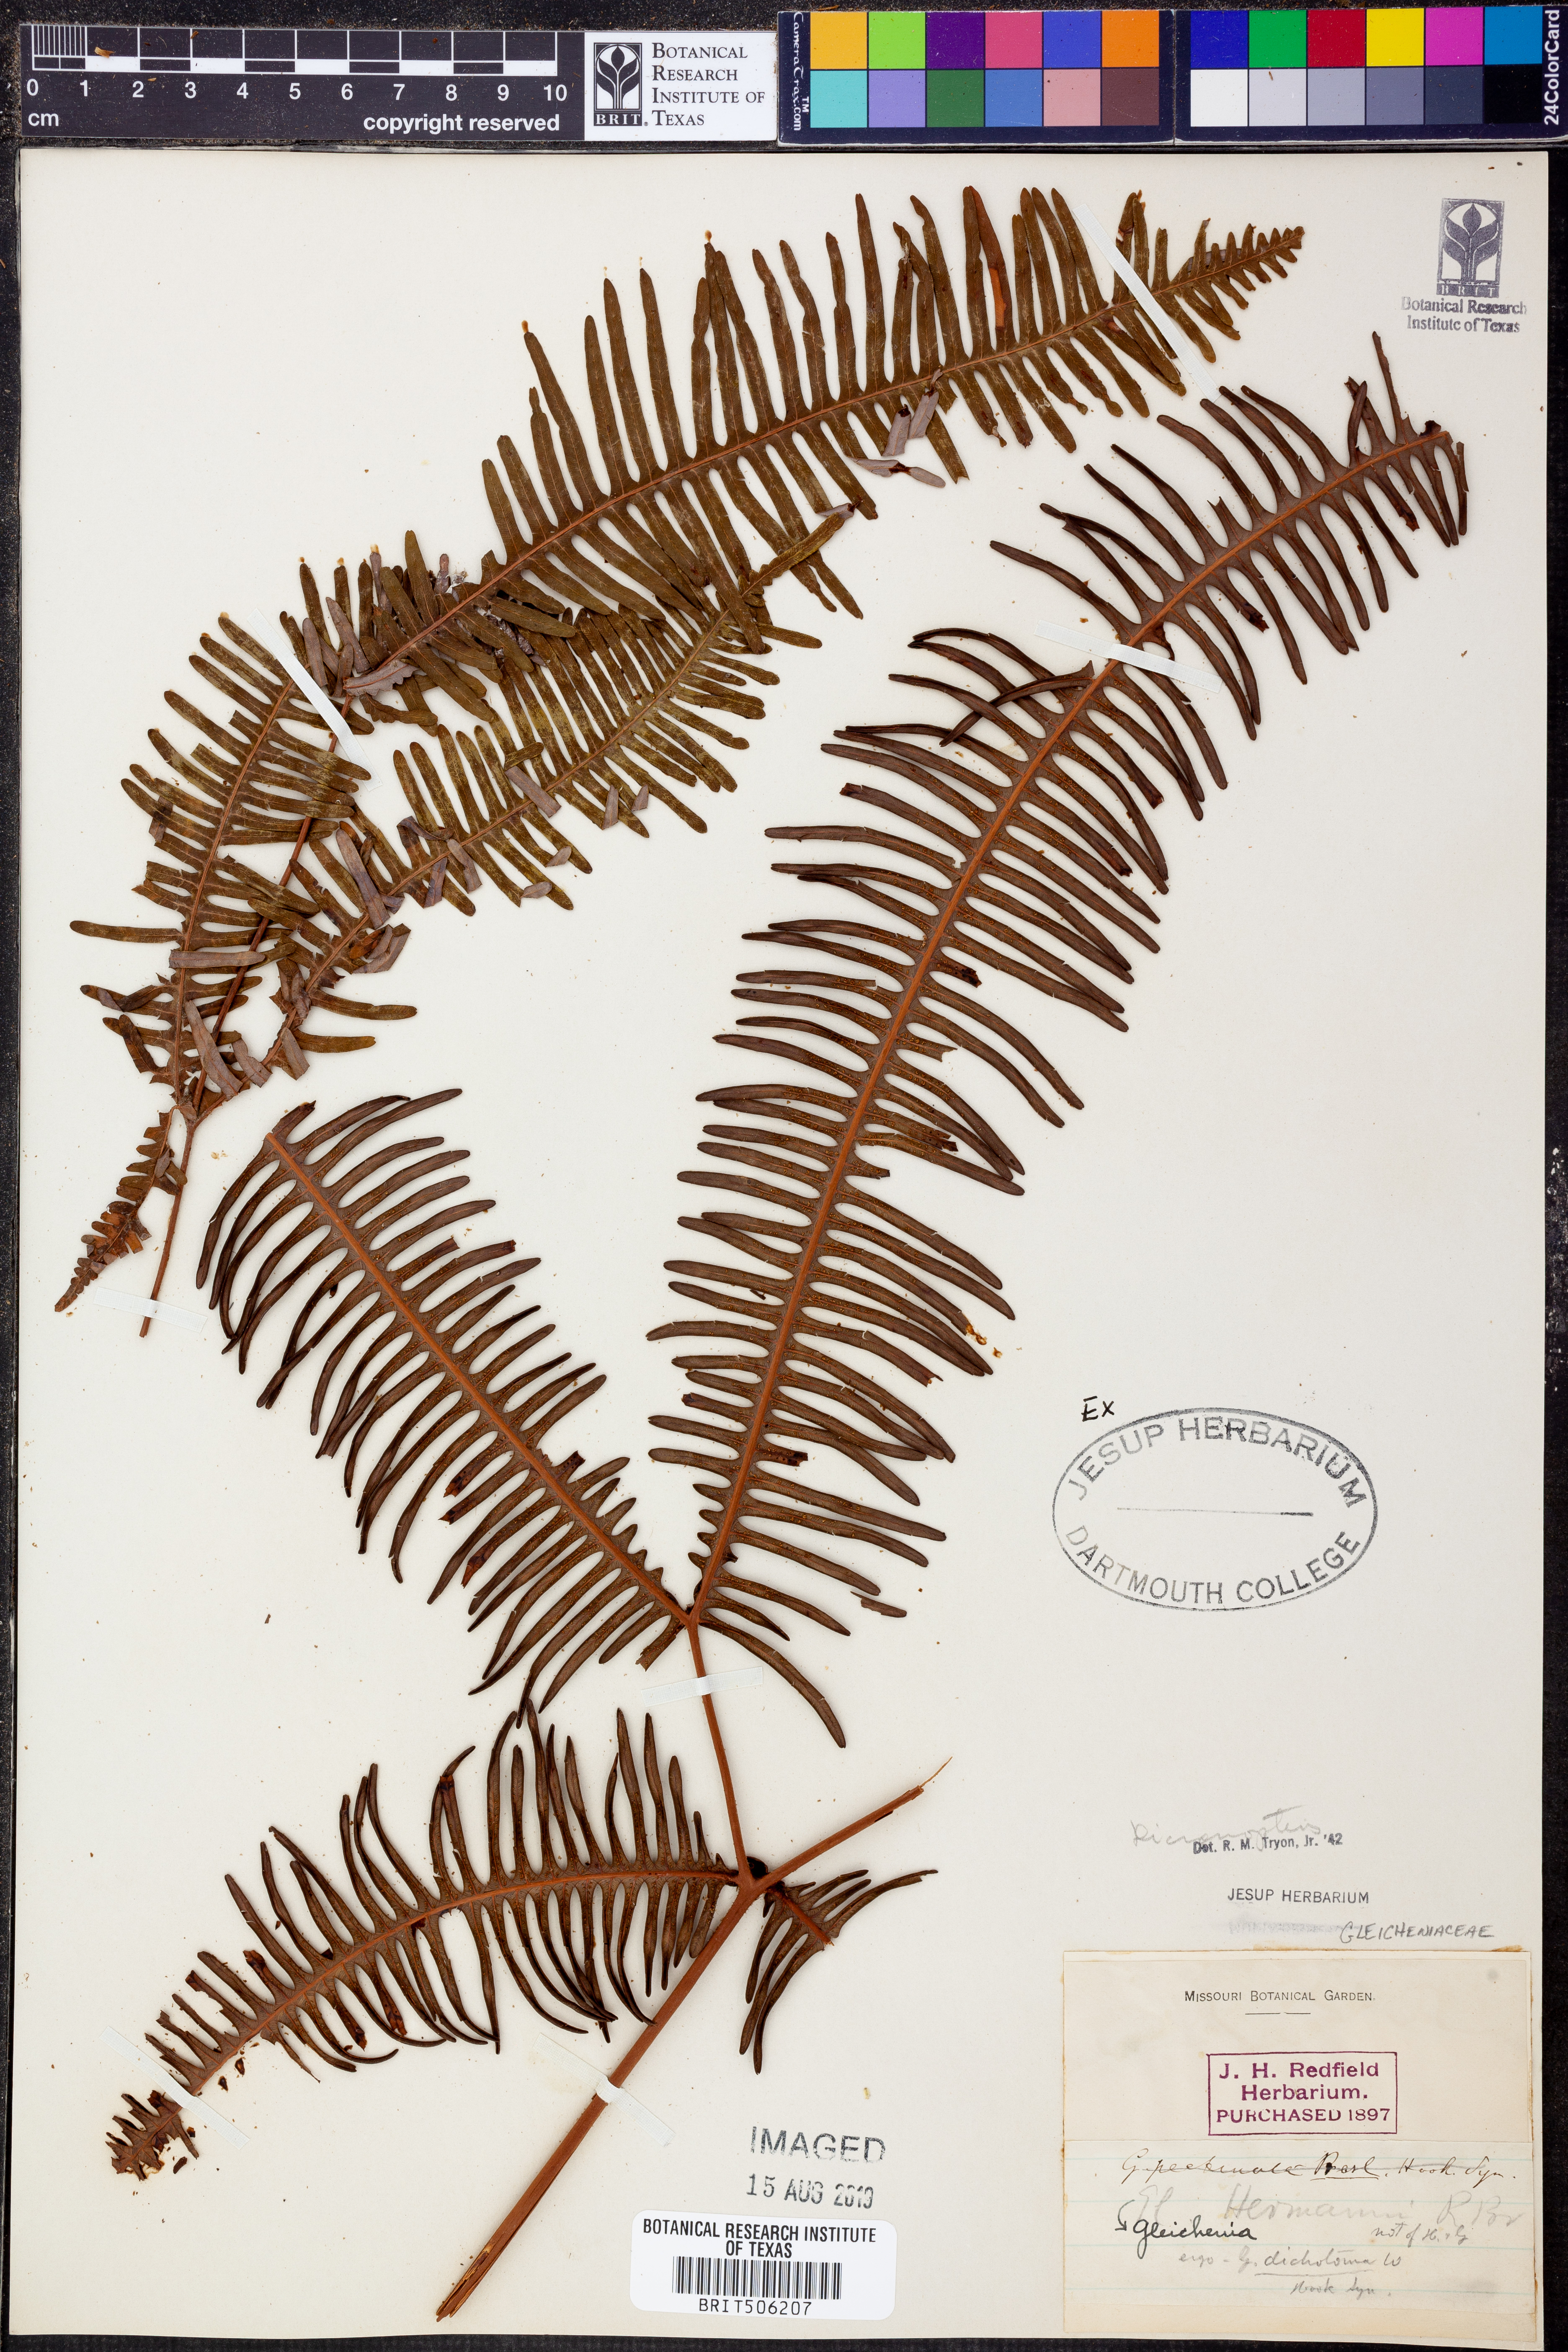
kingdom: Plantae
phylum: Tracheophyta
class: Polypodiopsida
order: Gleicheniales
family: Gleicheniaceae
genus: Dicranopteris
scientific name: Dicranopteris
